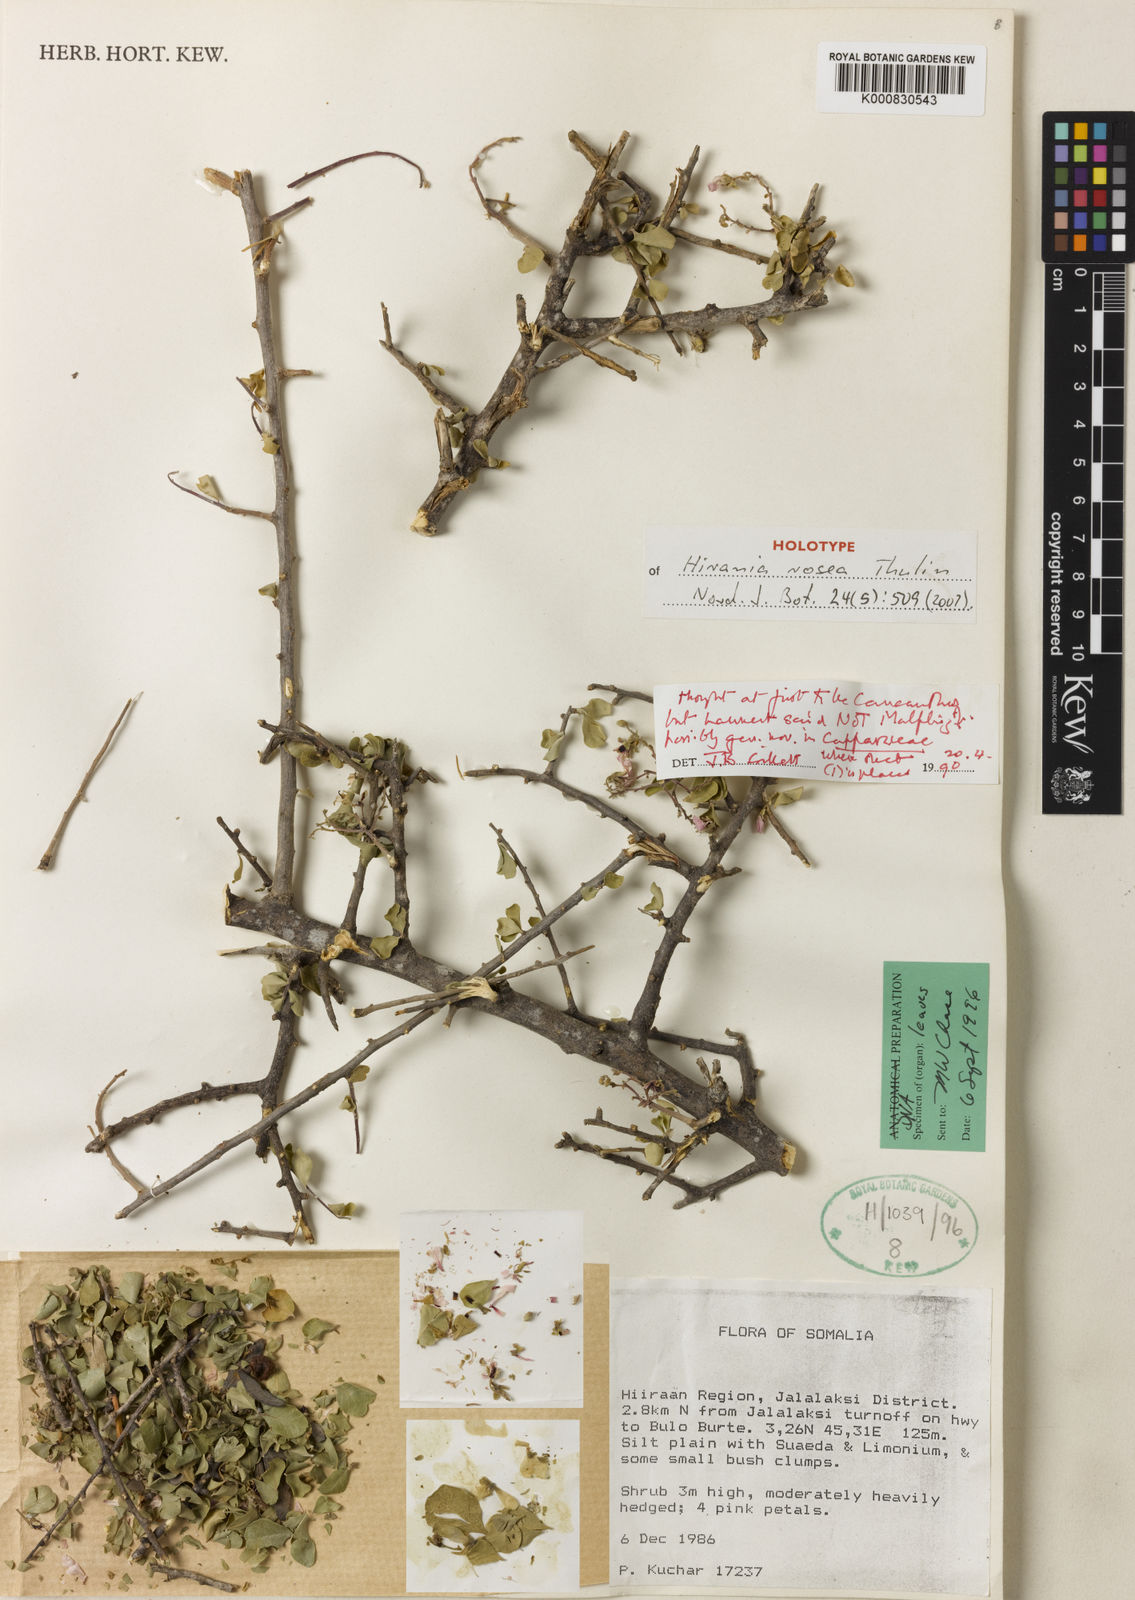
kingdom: Plantae
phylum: Tracheophyta
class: Magnoliopsida
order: Sapindales
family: Sapindaceae
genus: Hirania
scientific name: Hirania rosea
